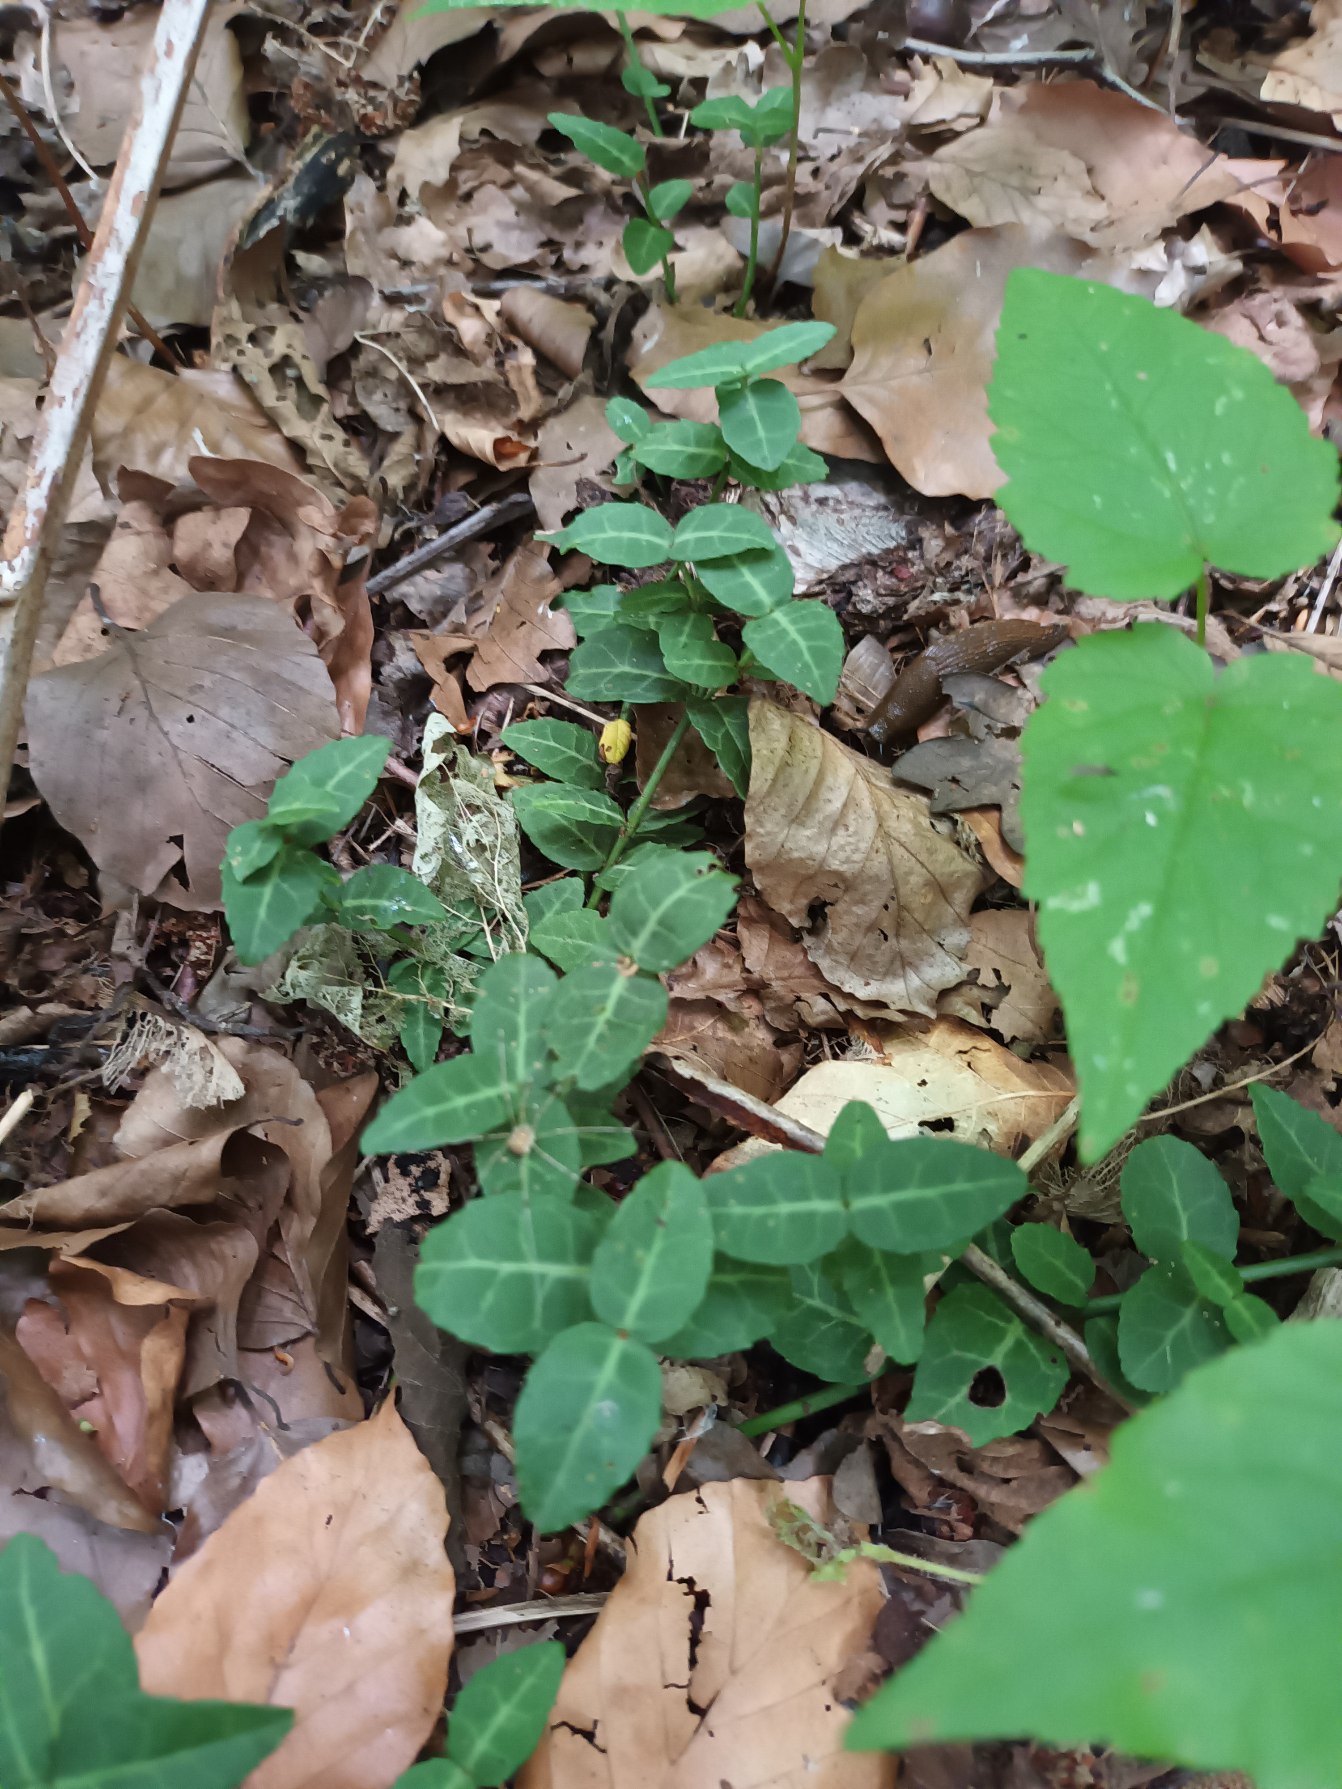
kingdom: Plantae
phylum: Tracheophyta
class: Magnoliopsida
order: Celastrales
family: Celastraceae
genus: Euonymus
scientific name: Euonymus fortunei
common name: Krybende benved
